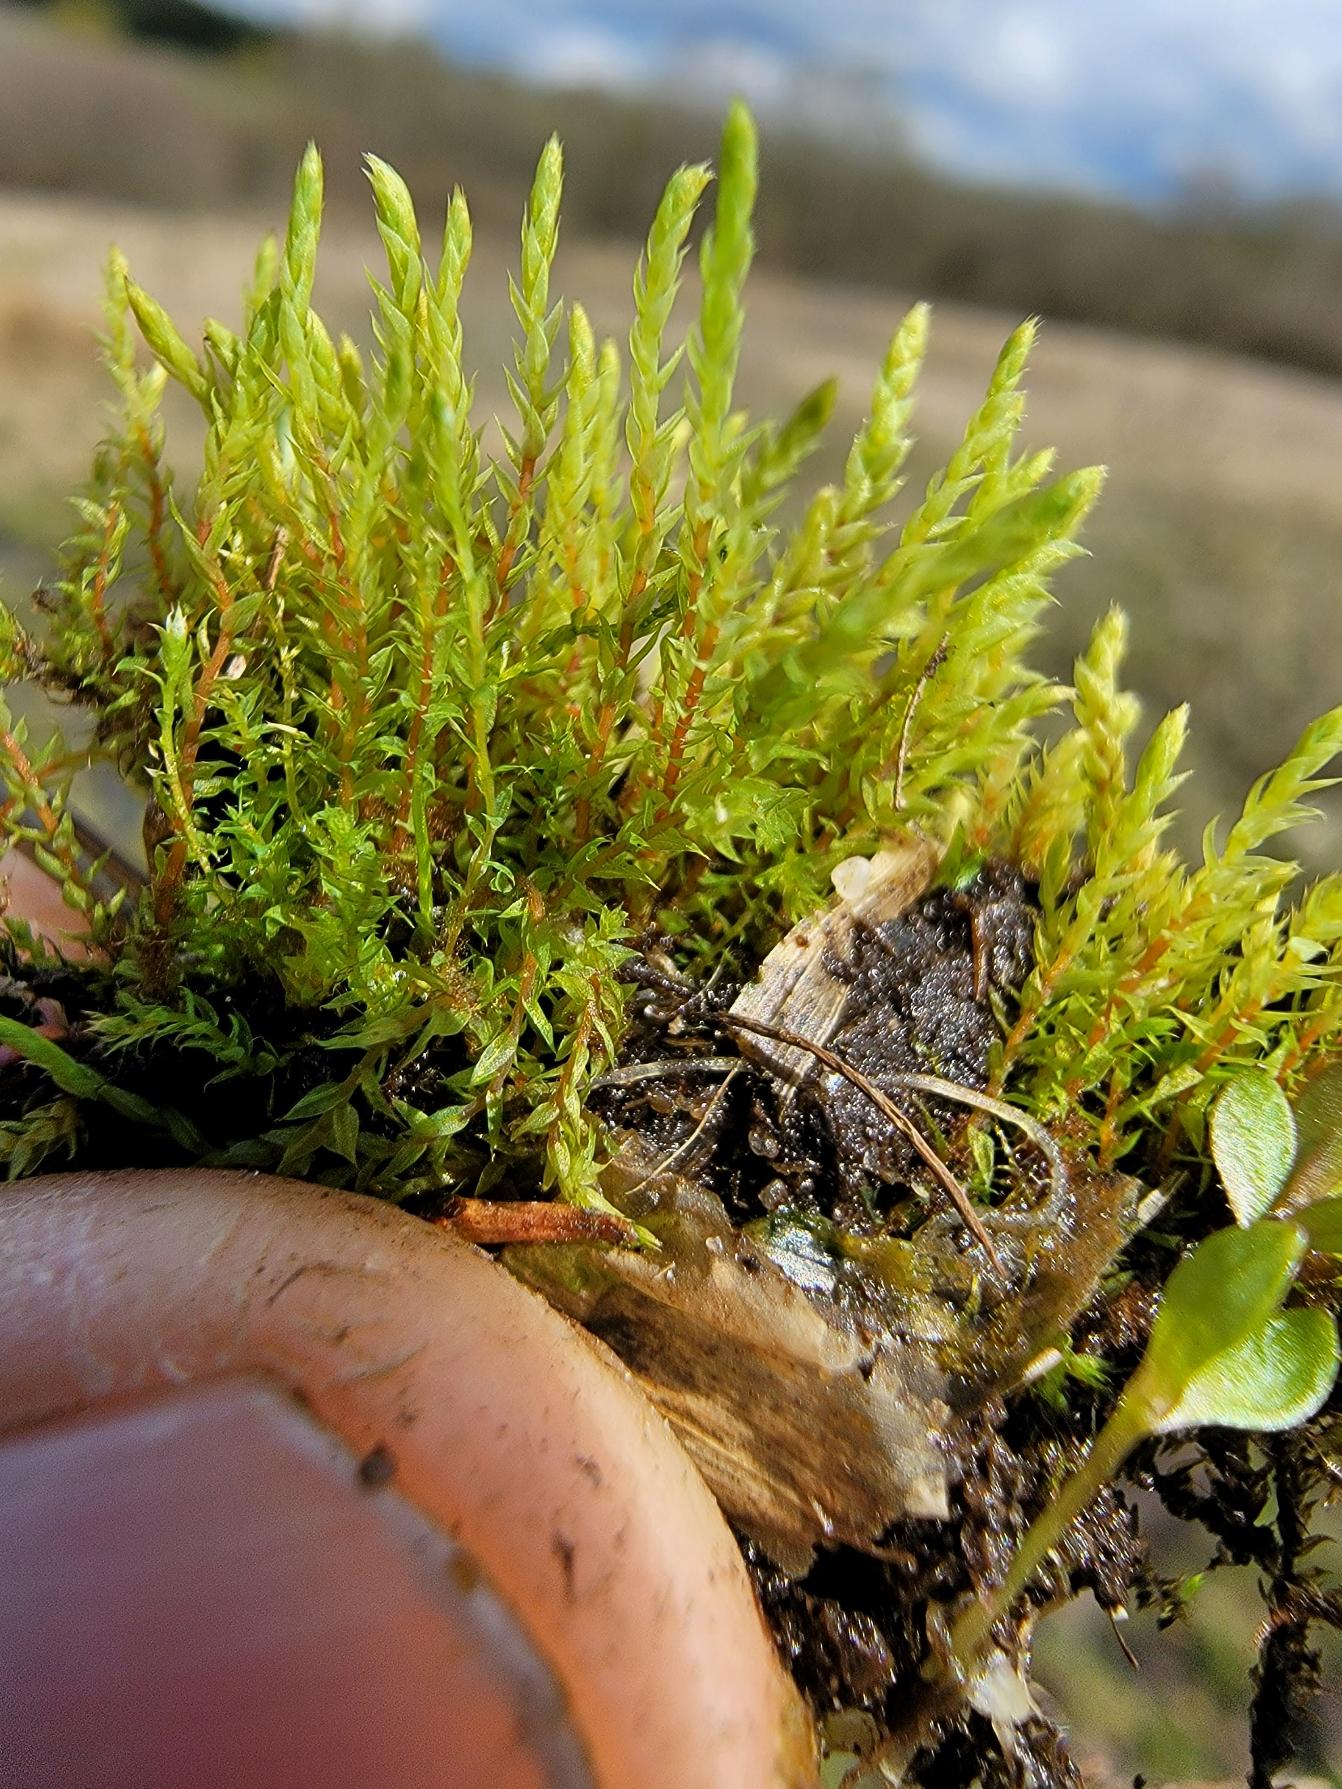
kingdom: Plantae
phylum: Bryophyta
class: Bryopsida
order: Bartramiales
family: Bartramiaceae
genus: Philonotis
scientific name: Philonotis caespitosa
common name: Fladbladet vandtuemos
